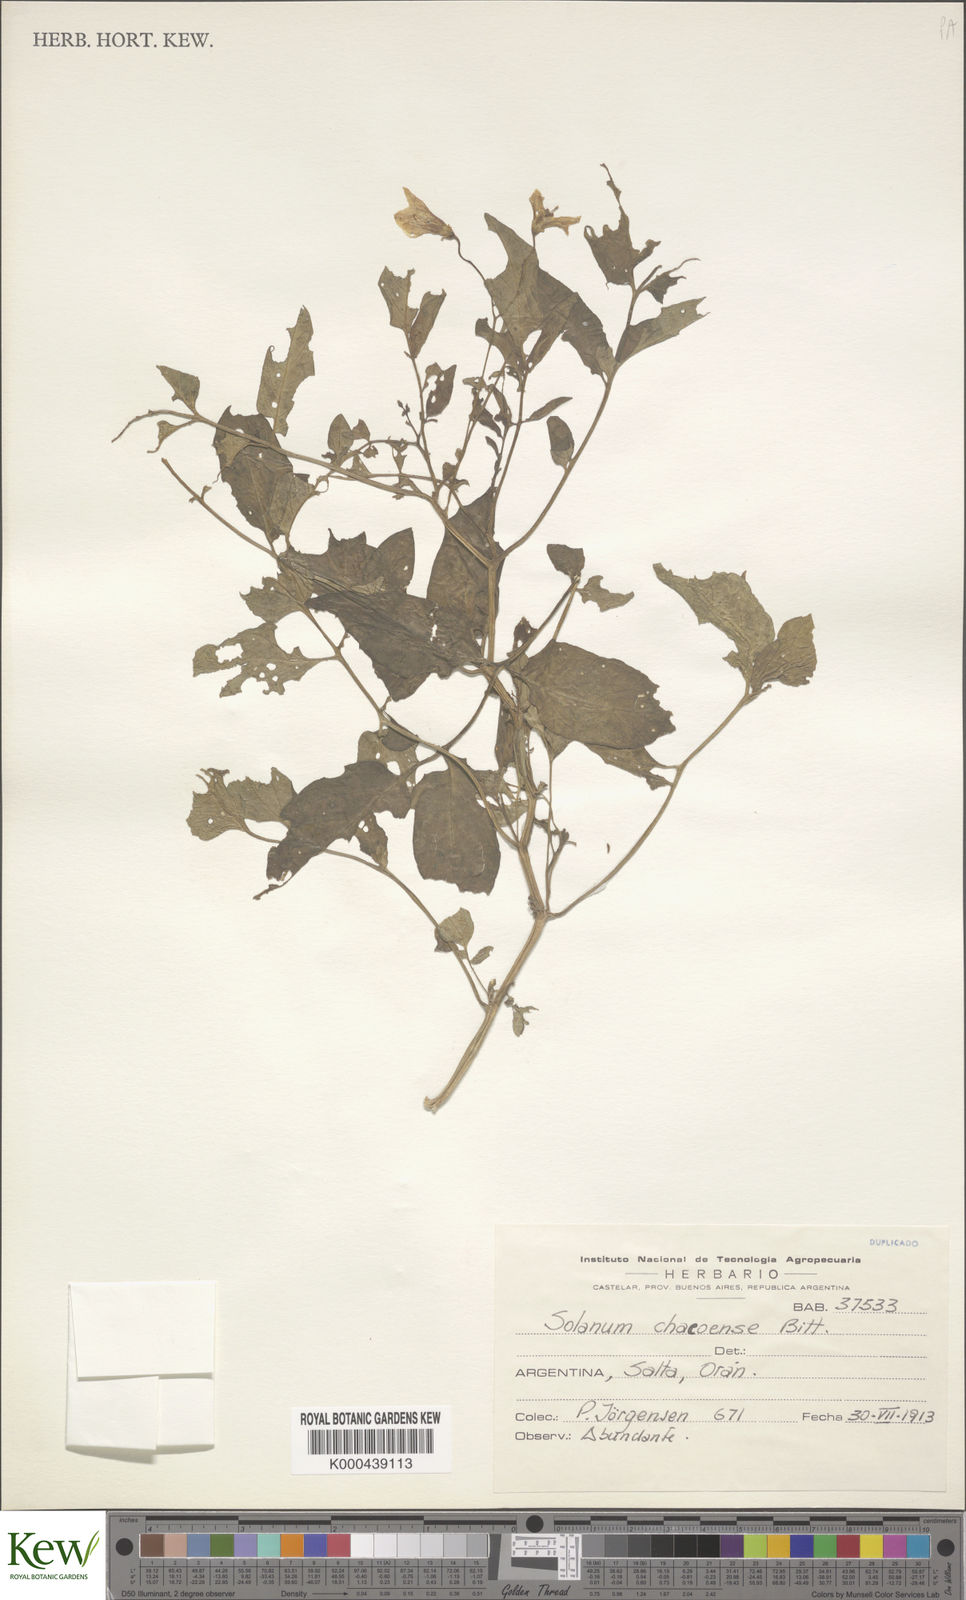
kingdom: Plantae
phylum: Tracheophyta
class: Magnoliopsida
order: Solanales
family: Solanaceae
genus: Solanum
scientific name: Solanum chacoense
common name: Chaco potato
